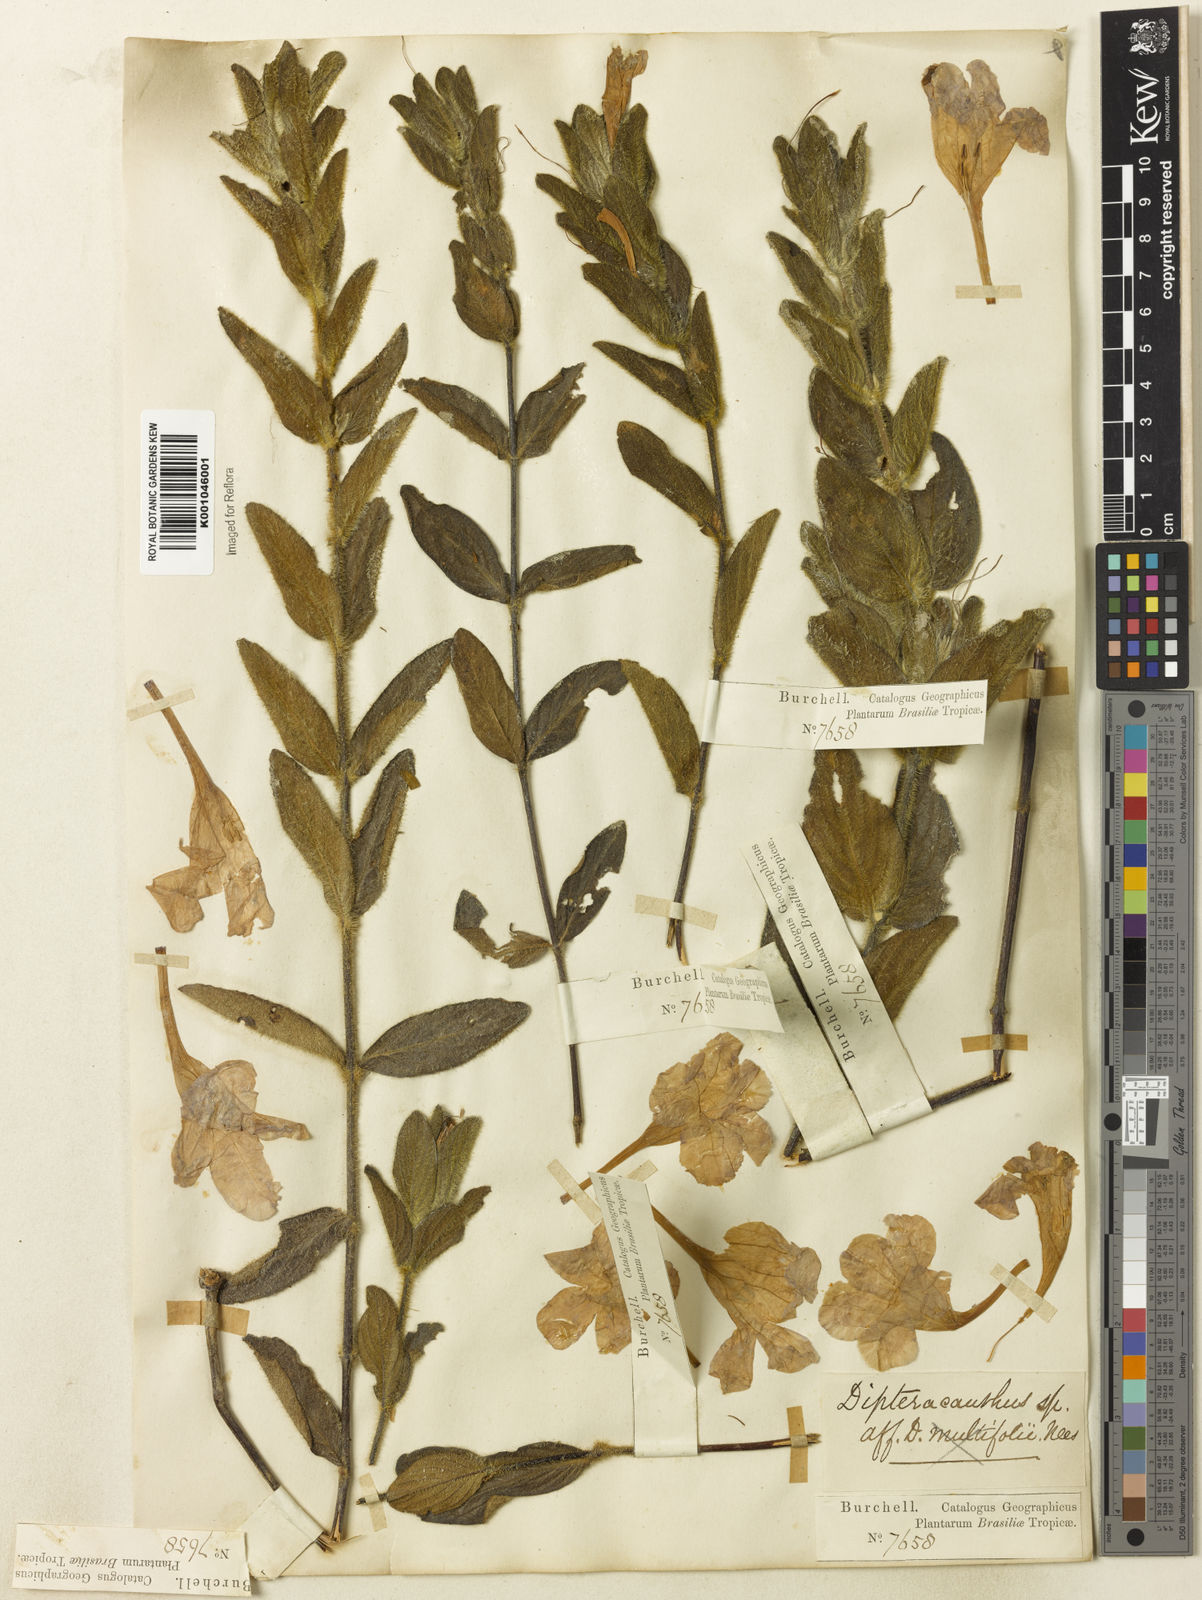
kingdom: Plantae
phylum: Tracheophyta
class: Magnoliopsida
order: Lamiales
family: Acanthaceae
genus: Ruellia
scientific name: Ruellia hapalotricha
